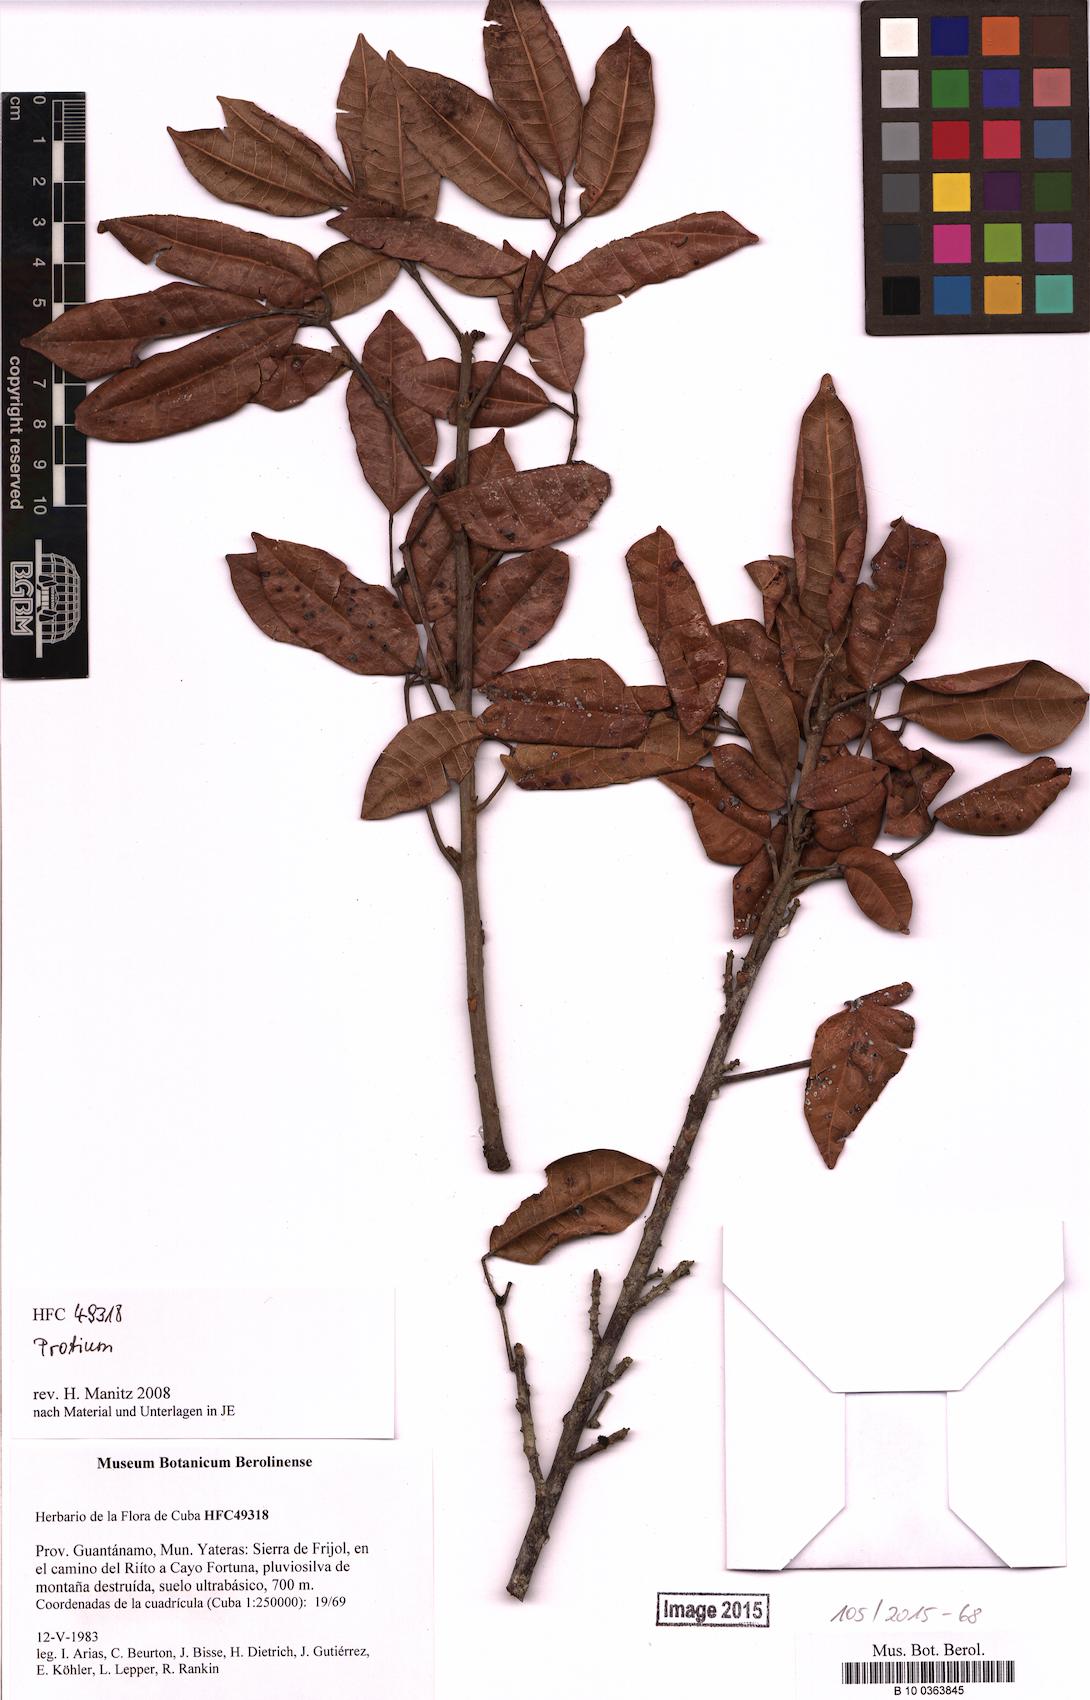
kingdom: Plantae
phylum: Tracheophyta
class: Magnoliopsida
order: Sapindales
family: Burseraceae
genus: Protium
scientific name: Protium
